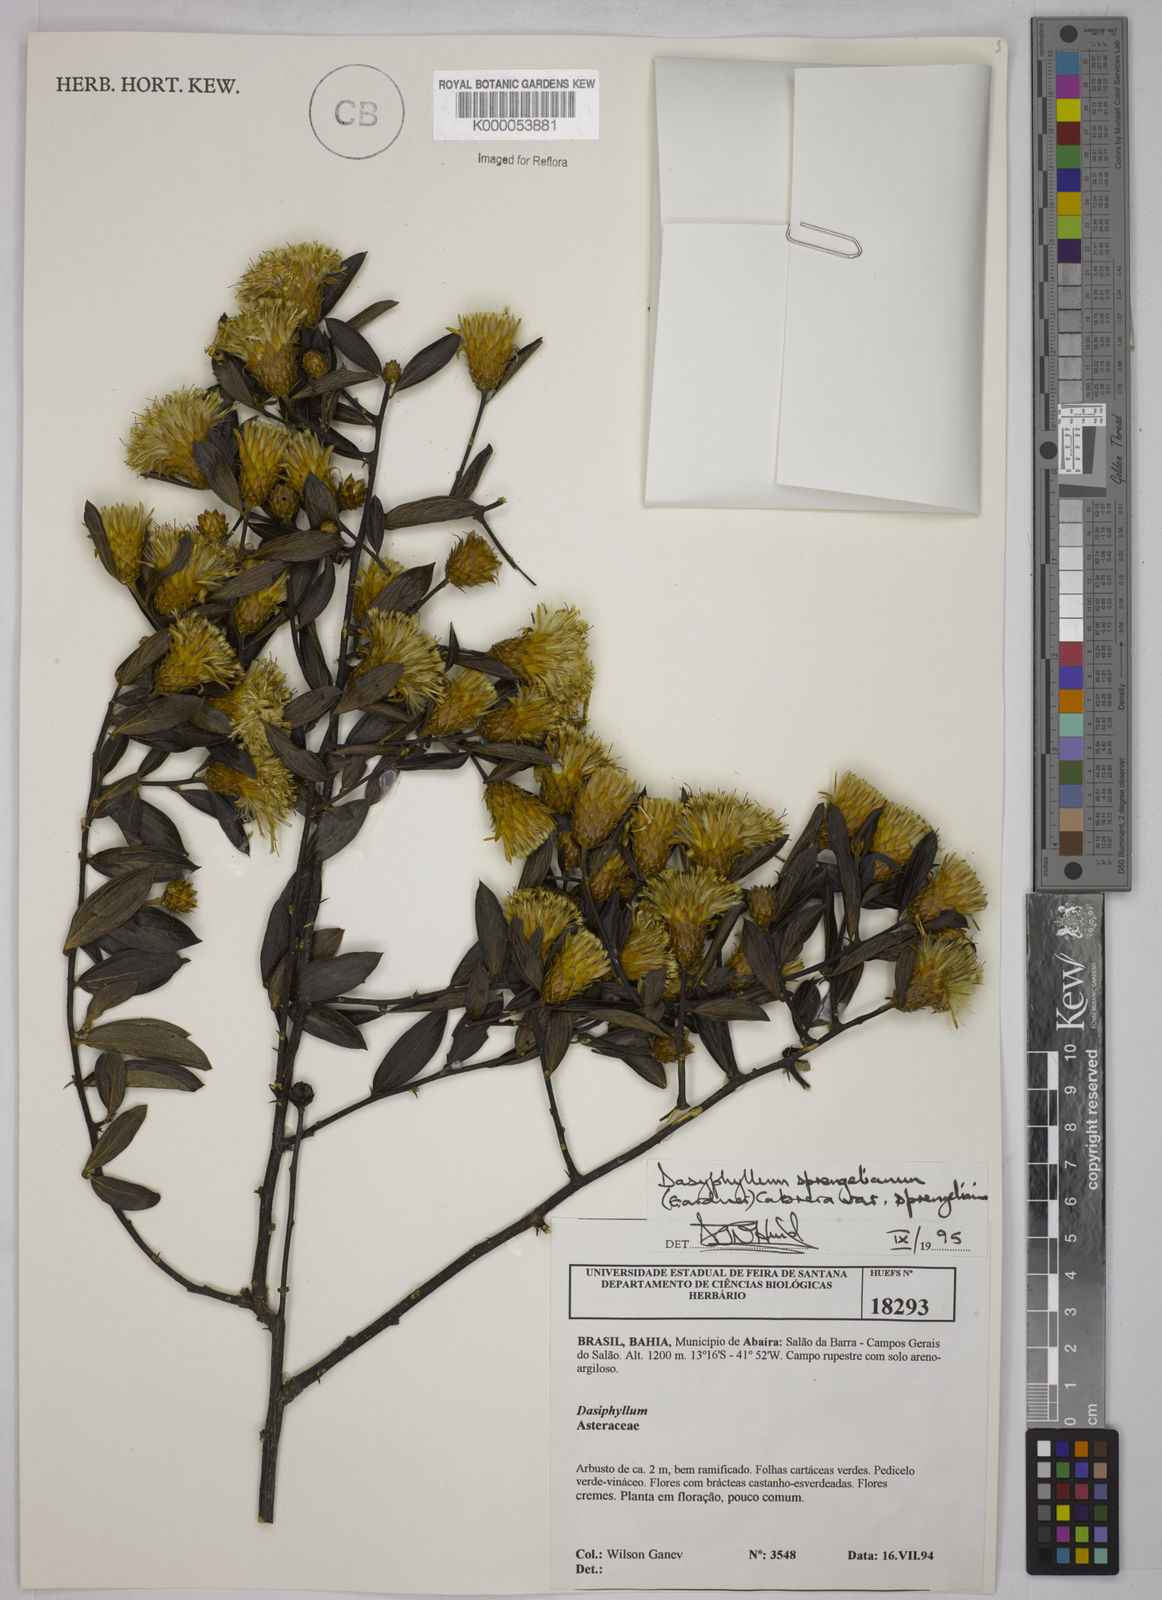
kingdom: Plantae
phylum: Tracheophyta
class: Magnoliopsida
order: Asterales
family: Asteraceae
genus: Dasyphyllum
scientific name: Dasyphyllum sprengelianum
